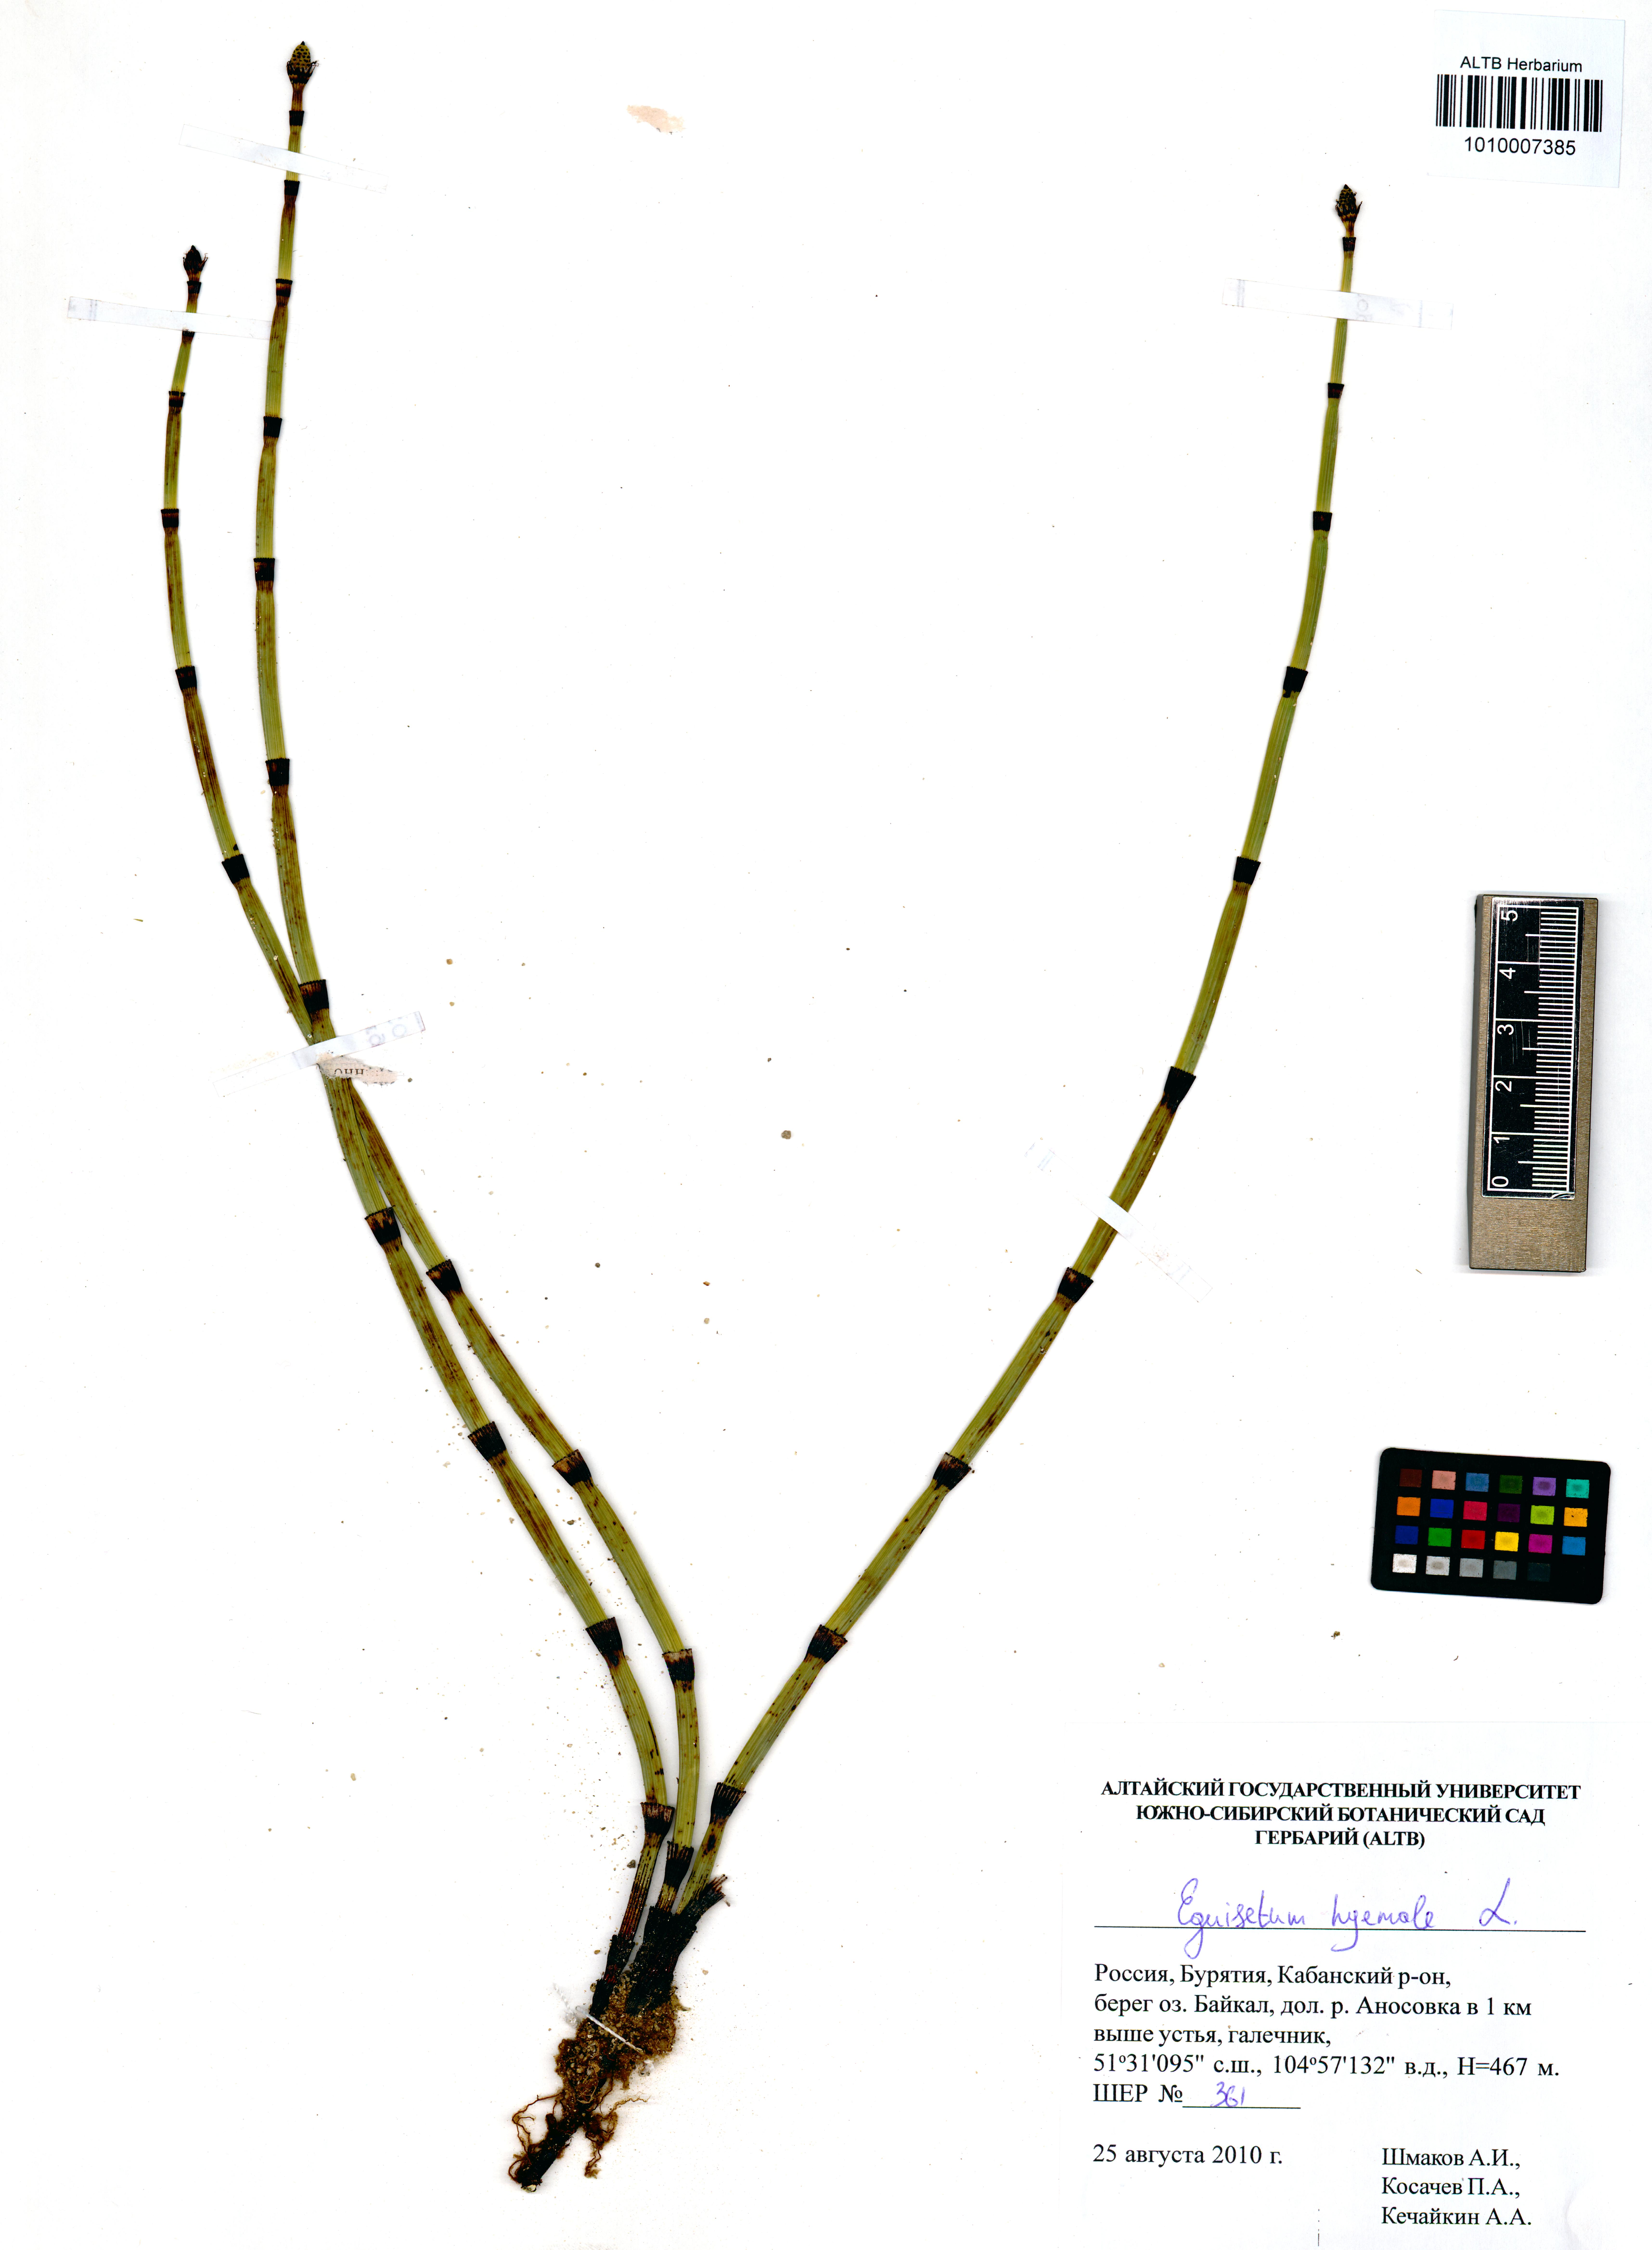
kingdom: Plantae
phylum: Tracheophyta
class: Polypodiopsida
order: Equisetales
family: Equisetaceae
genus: Equisetum
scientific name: Equisetum hyemale
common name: Rough horsetail
